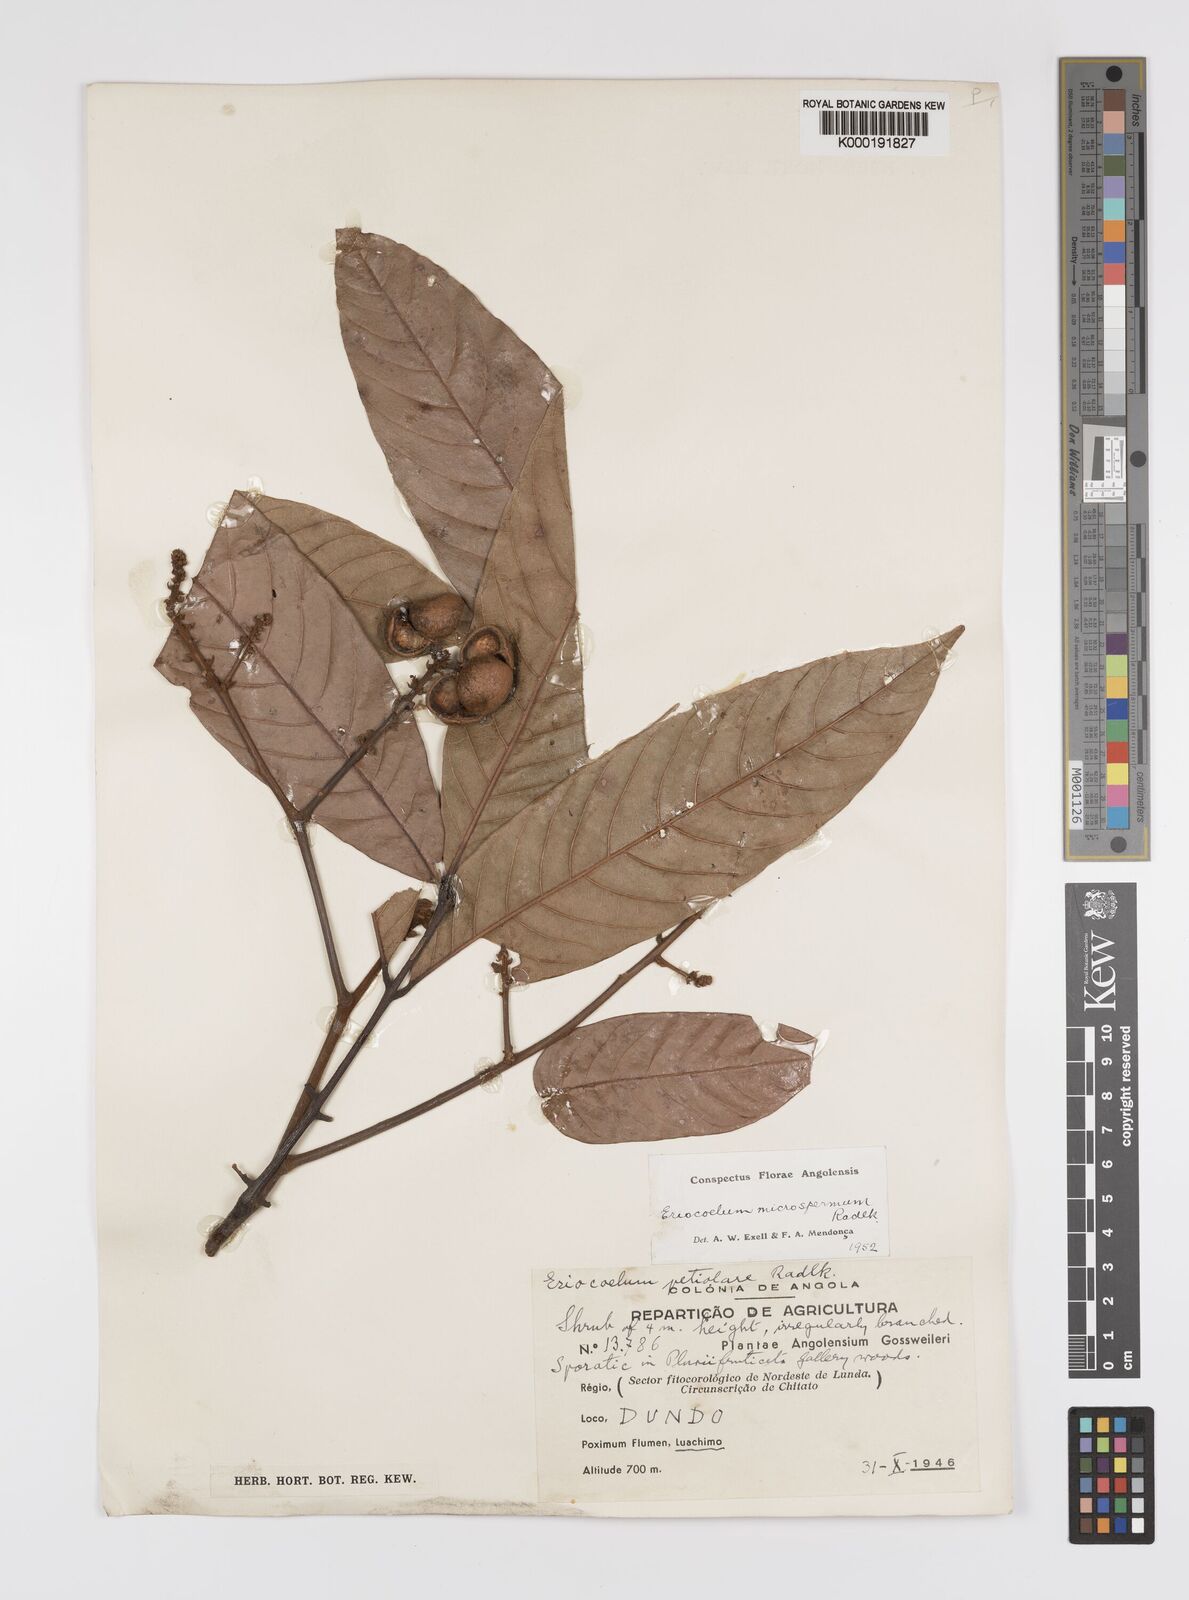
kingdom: Plantae
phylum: Tracheophyta
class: Magnoliopsida
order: Sapindales
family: Sapindaceae
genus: Eriocoelum
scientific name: Eriocoelum
